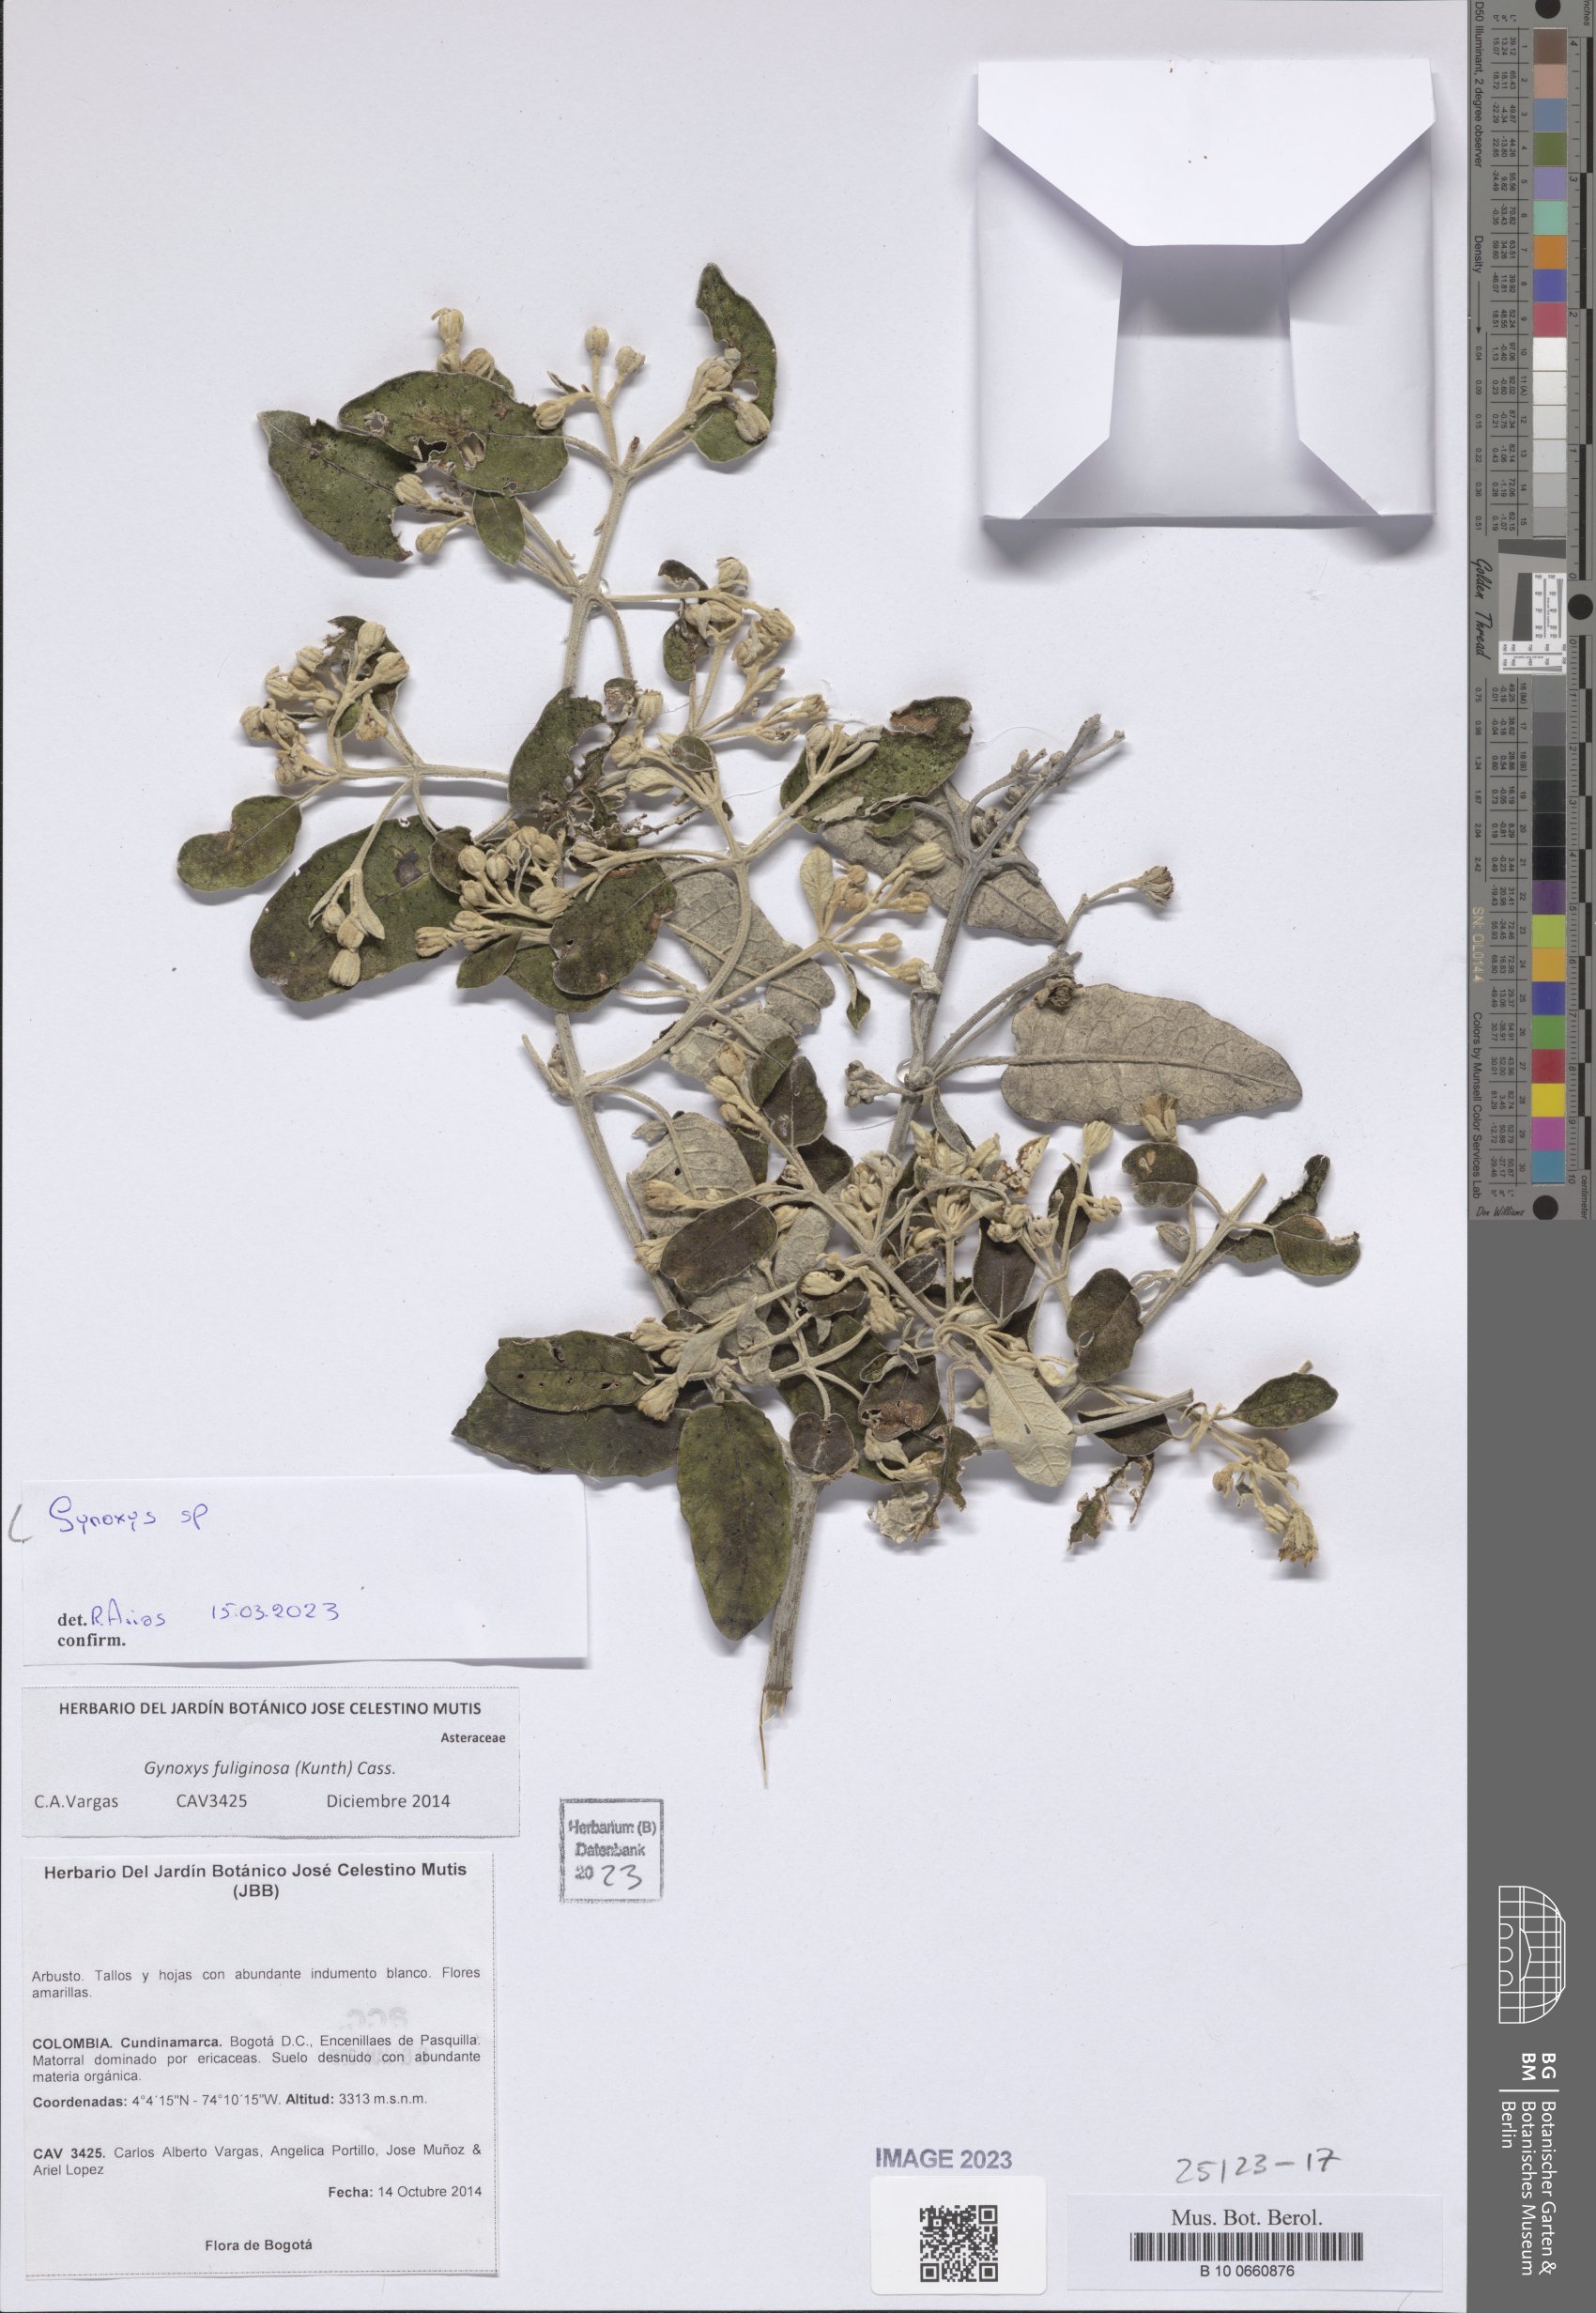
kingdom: Plantae
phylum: Tracheophyta
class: Magnoliopsida
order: Asterales
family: Asteraceae
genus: Gynoxys
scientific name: Gynoxys
